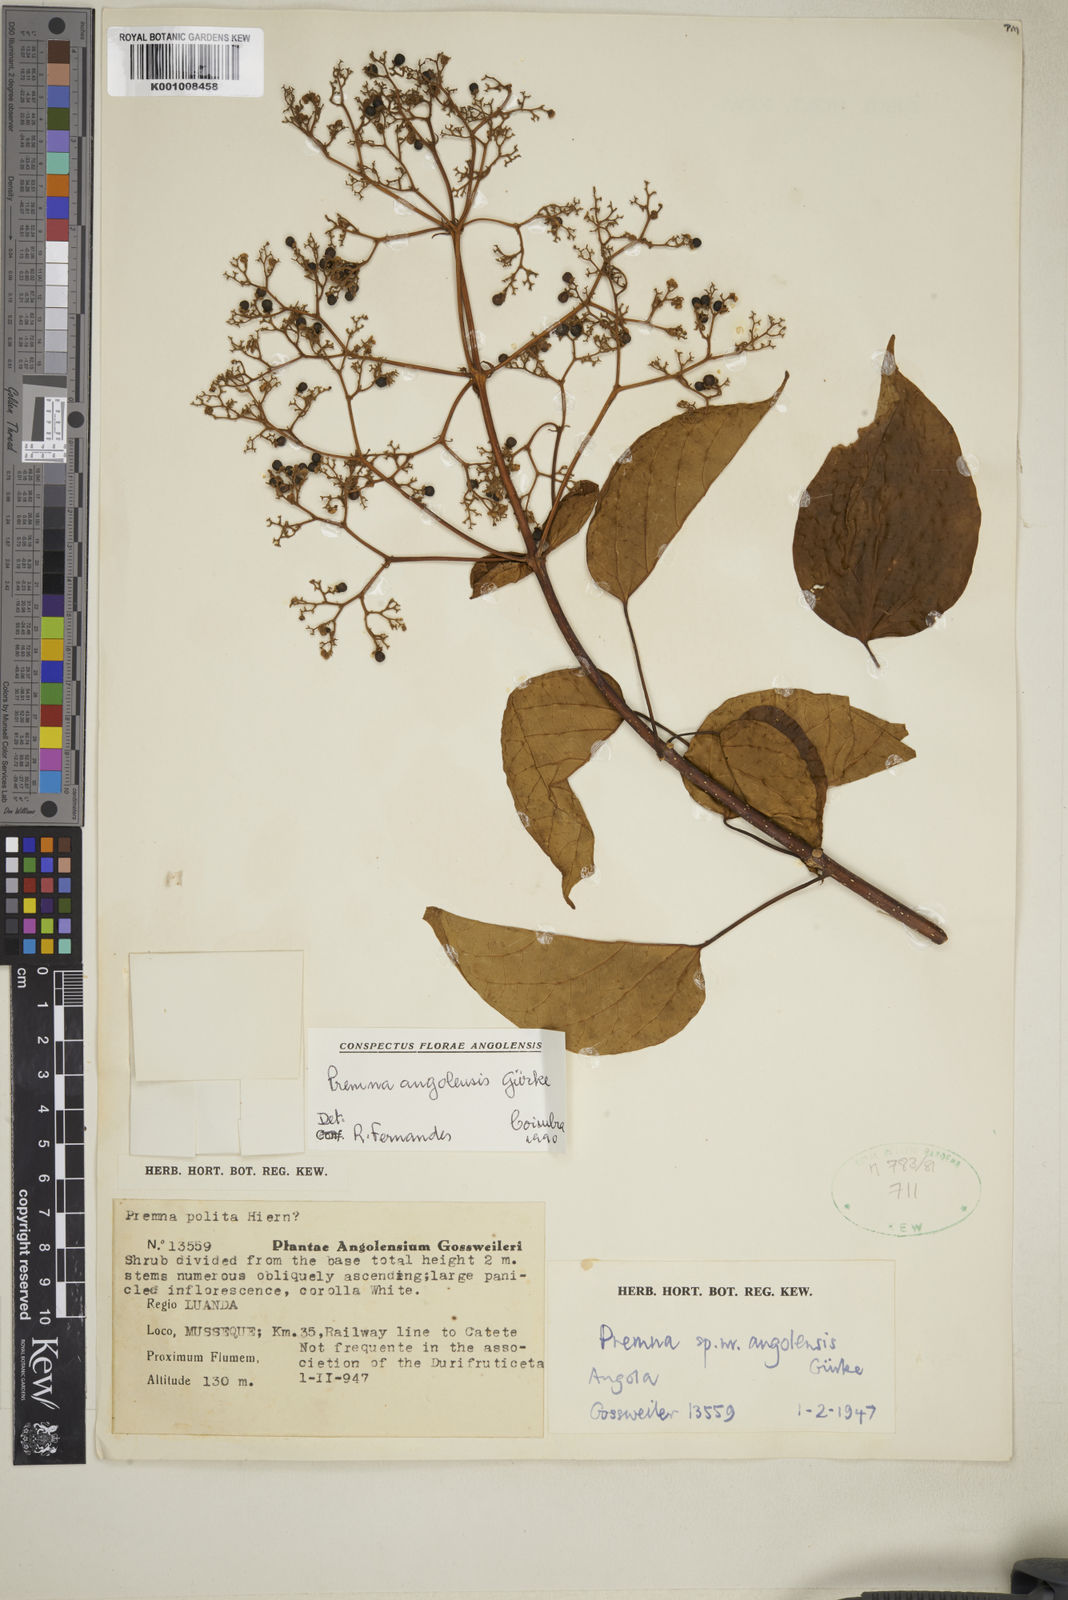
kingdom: Plantae
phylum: Tracheophyta
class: Magnoliopsida
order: Lamiales
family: Lamiaceae
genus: Premna
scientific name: Premna
